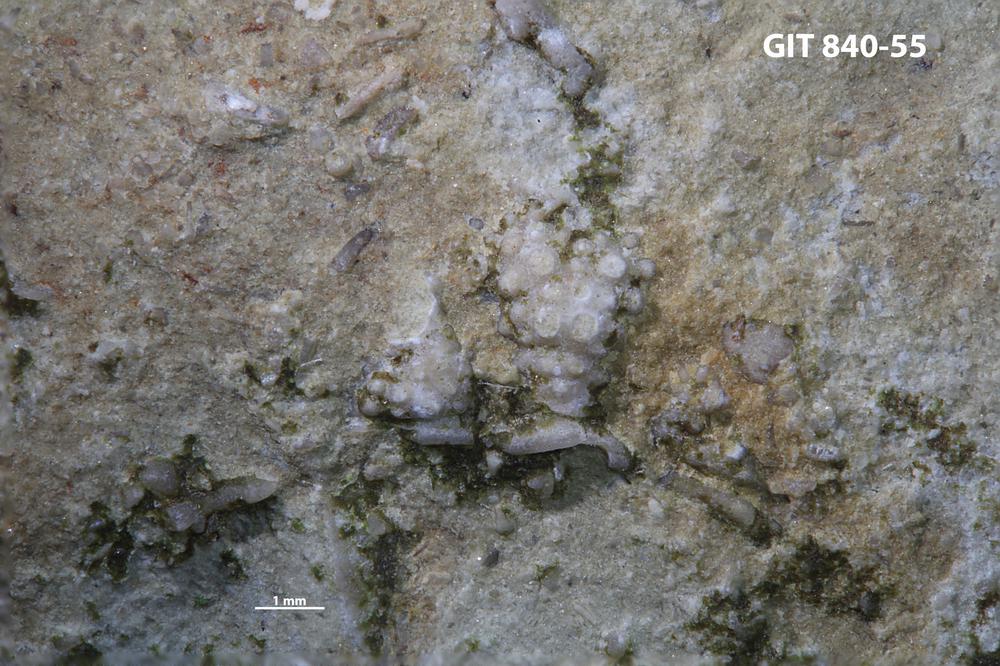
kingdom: Animalia
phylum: Arthropoda
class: Trilobita
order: Phacopida
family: Encrinuridae
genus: Erratencrinurus
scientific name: Erratencrinurus kiaeri
